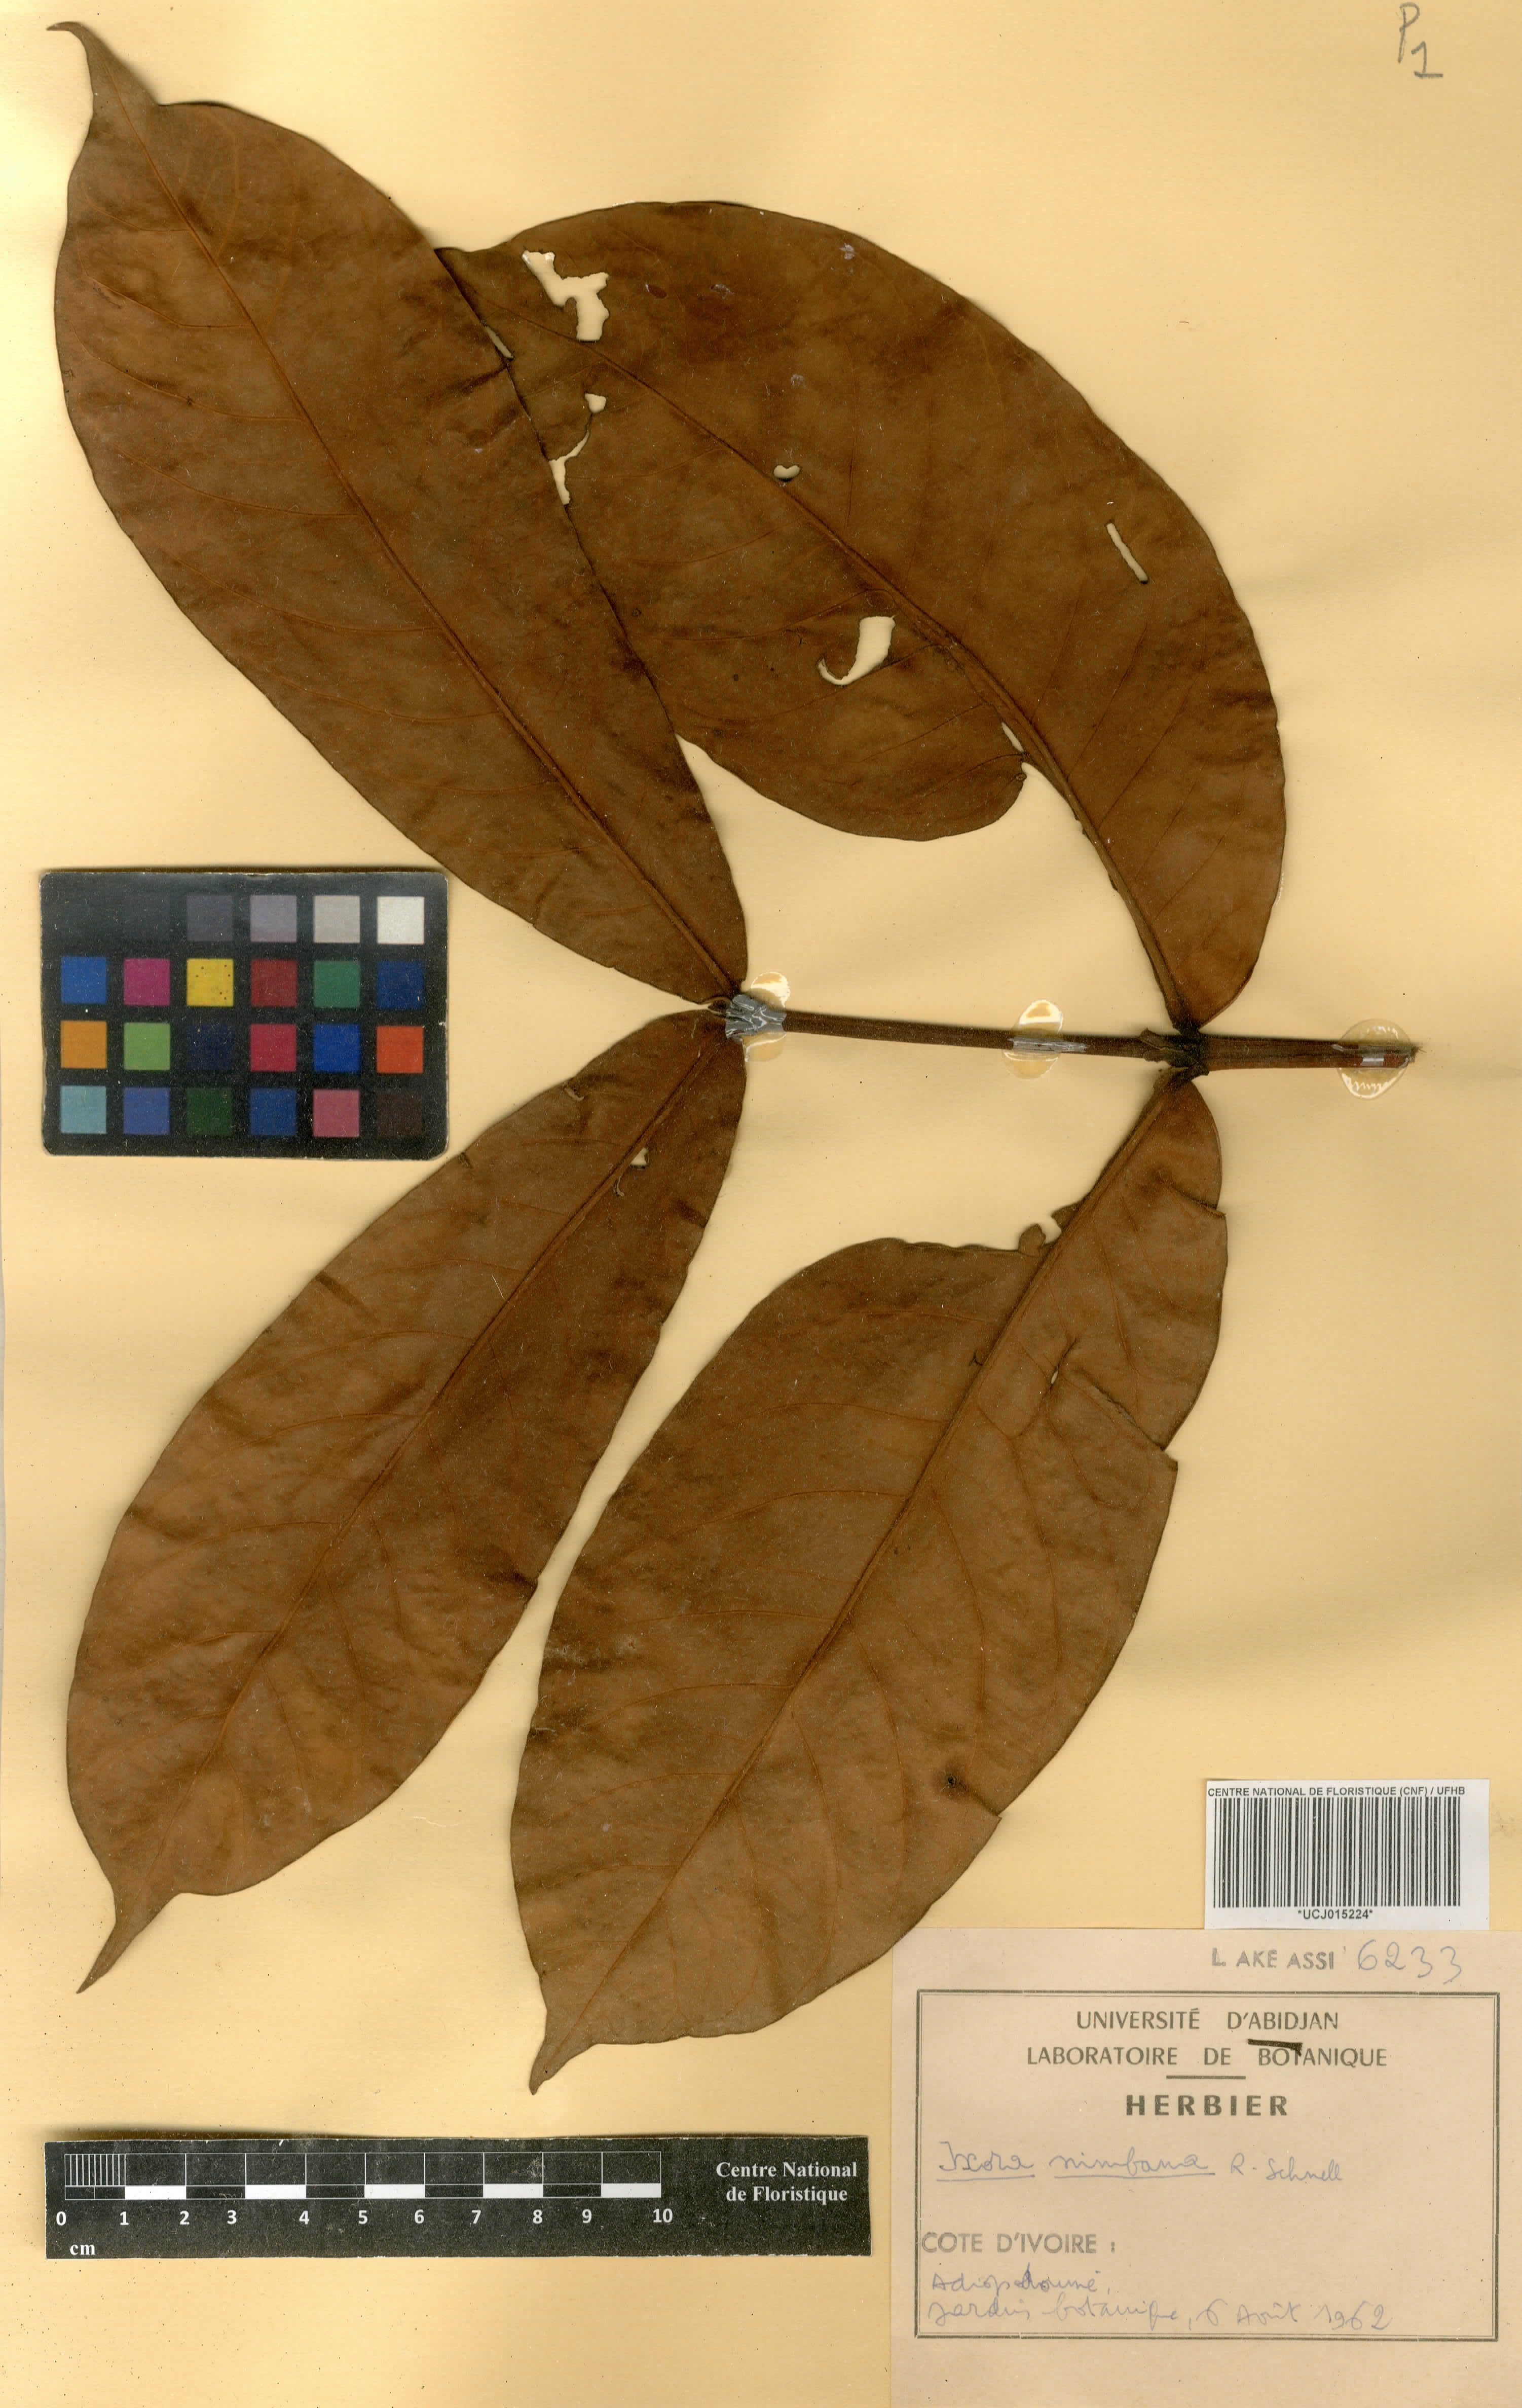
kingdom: Plantae
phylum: Tracheophyta
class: Magnoliopsida
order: Gentianales
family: Rubiaceae
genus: Ixora
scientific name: Ixora nimbana
